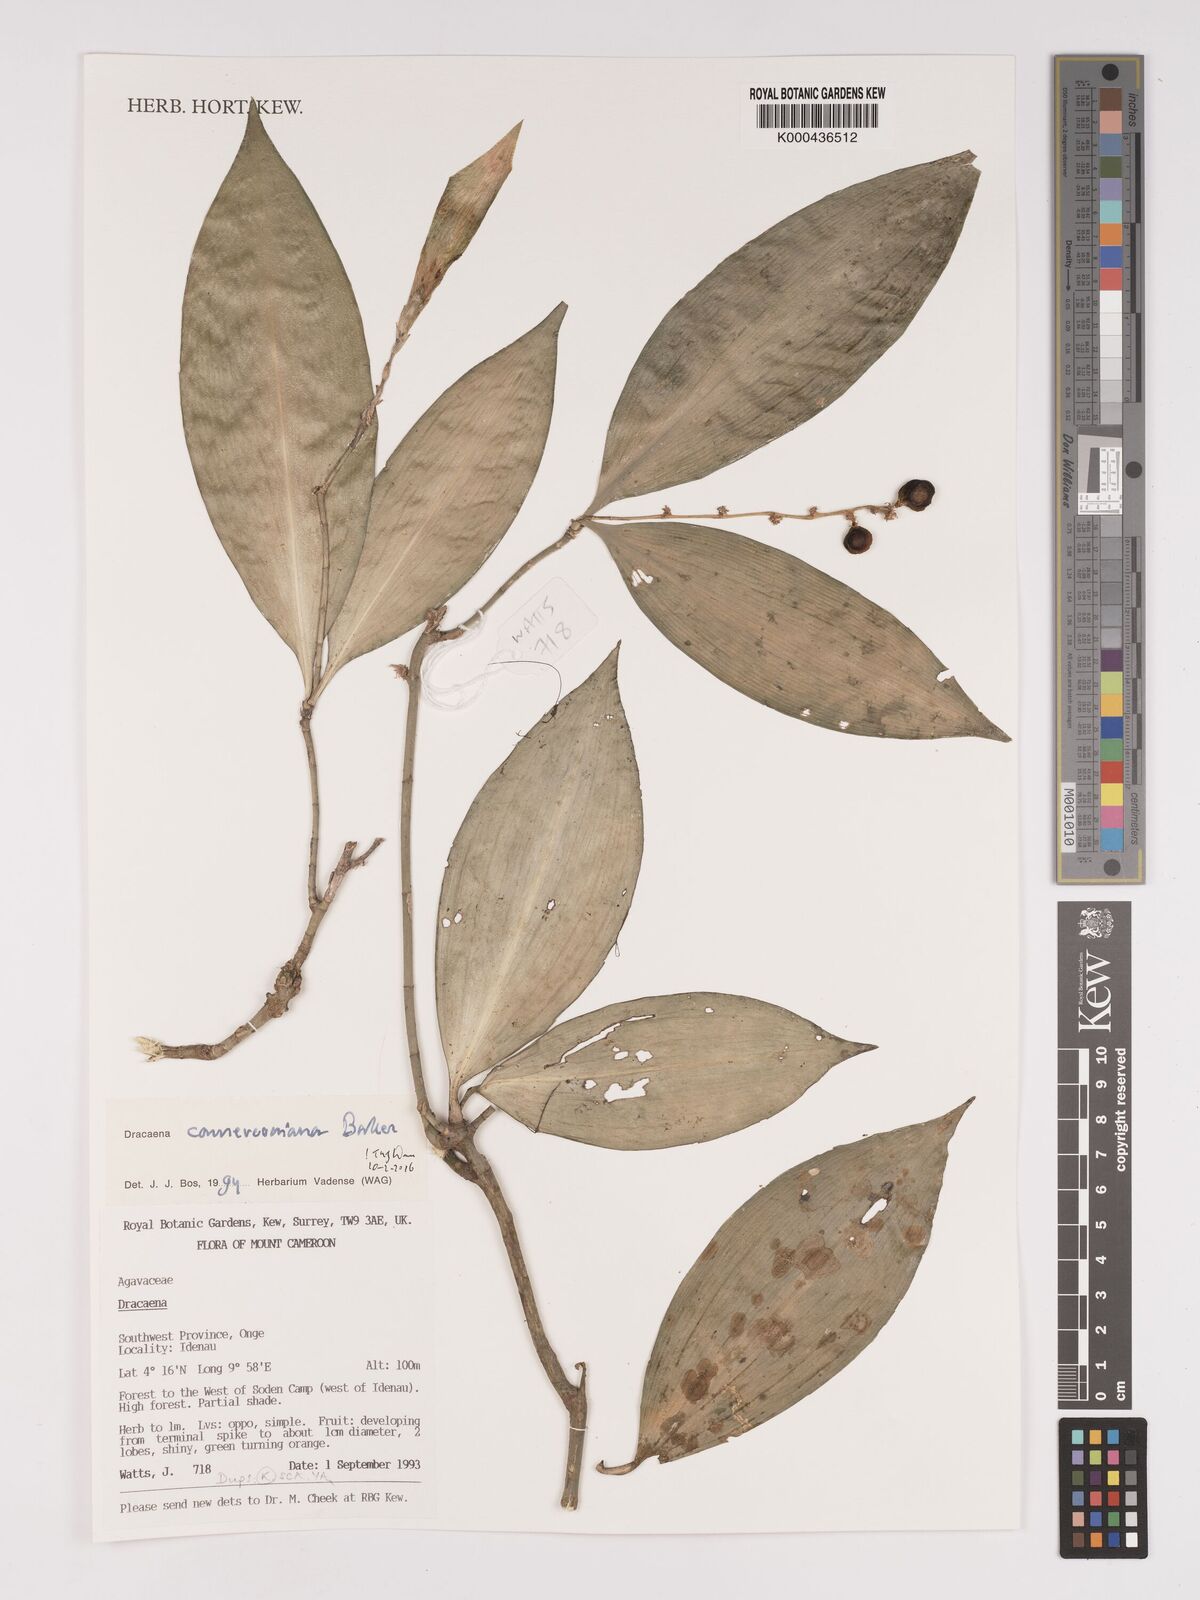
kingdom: Plantae
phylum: Tracheophyta
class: Liliopsida
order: Asparagales
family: Asparagaceae
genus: Dracaena
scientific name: Dracaena camerooniana
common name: Dragon tree
